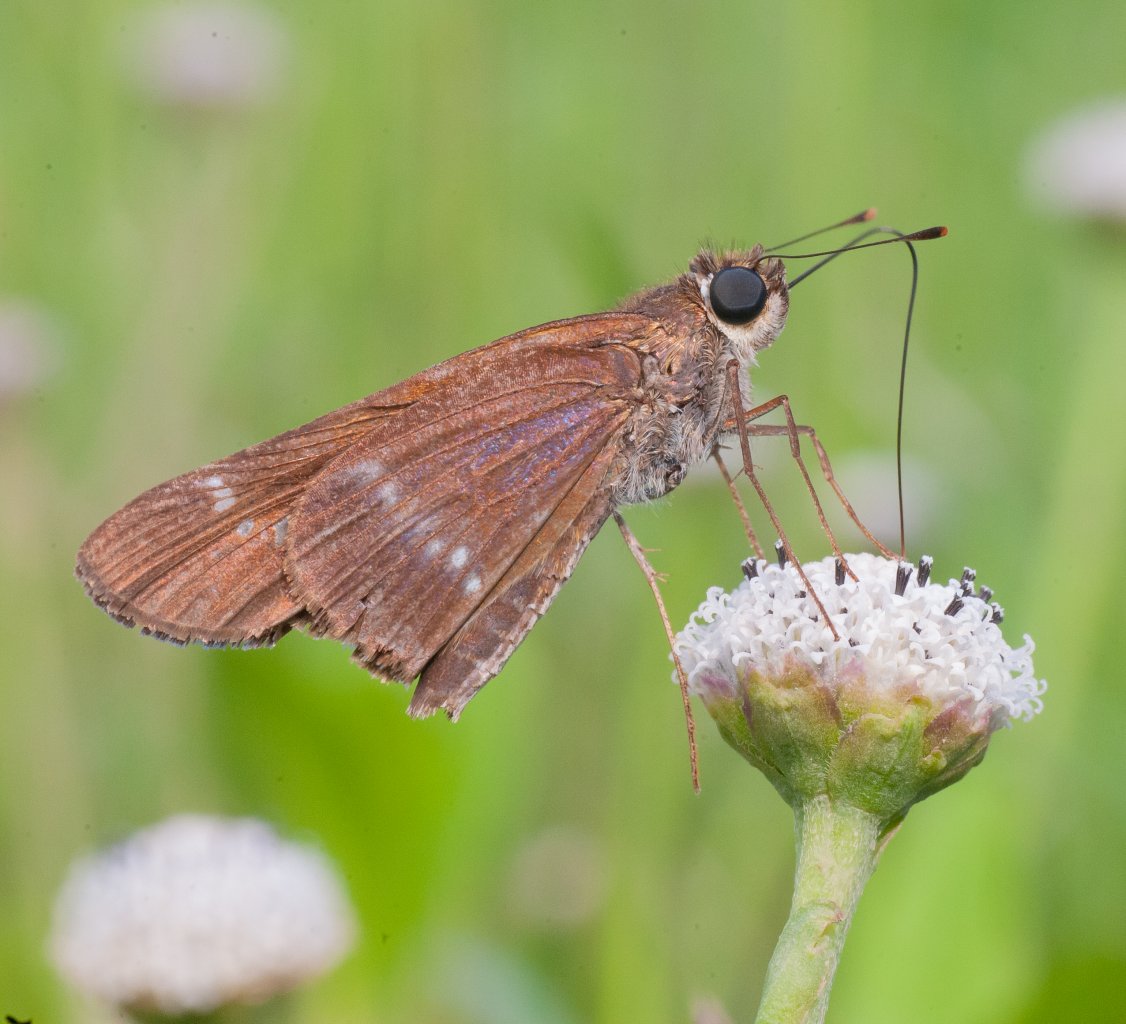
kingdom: Animalia
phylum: Arthropoda
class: Insecta
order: Lepidoptera
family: Hesperiidae
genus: Turesis
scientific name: Turesis lucas
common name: Purple-washed Skipper
